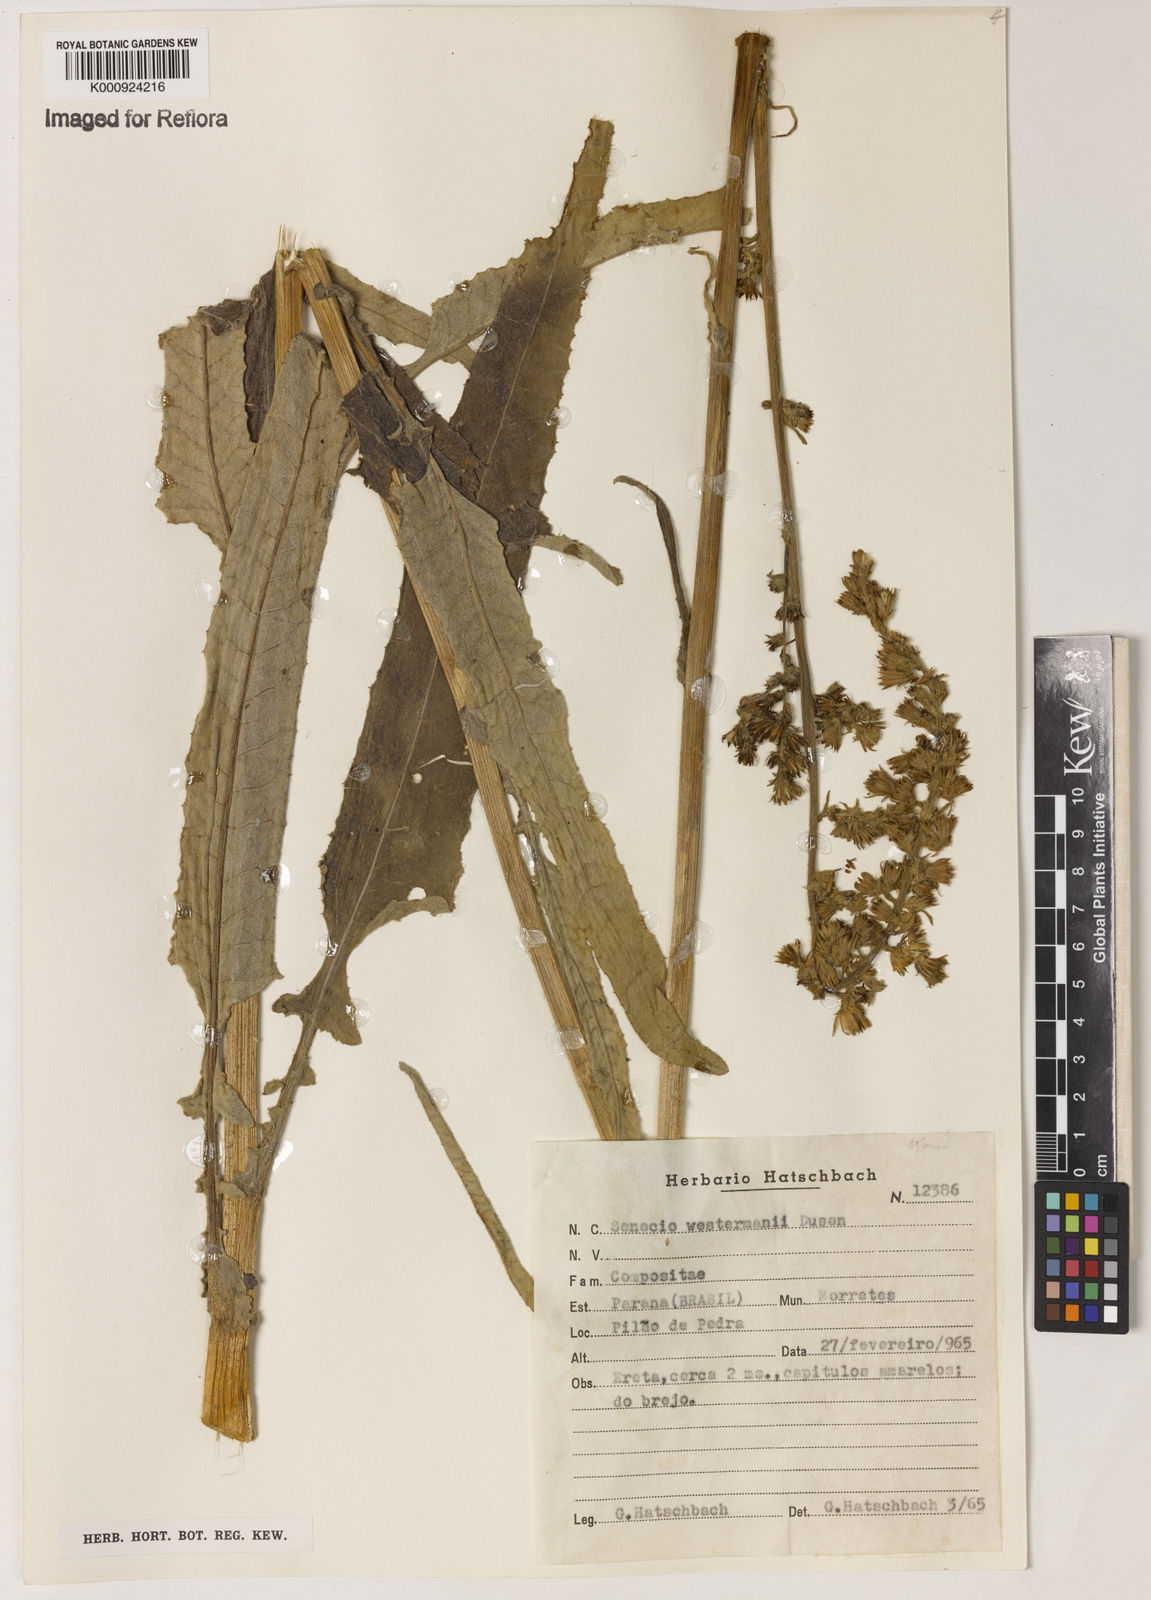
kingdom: Plantae
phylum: Tracheophyta
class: Magnoliopsida
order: Asterales
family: Asteraceae
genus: Senecio
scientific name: Senecio
